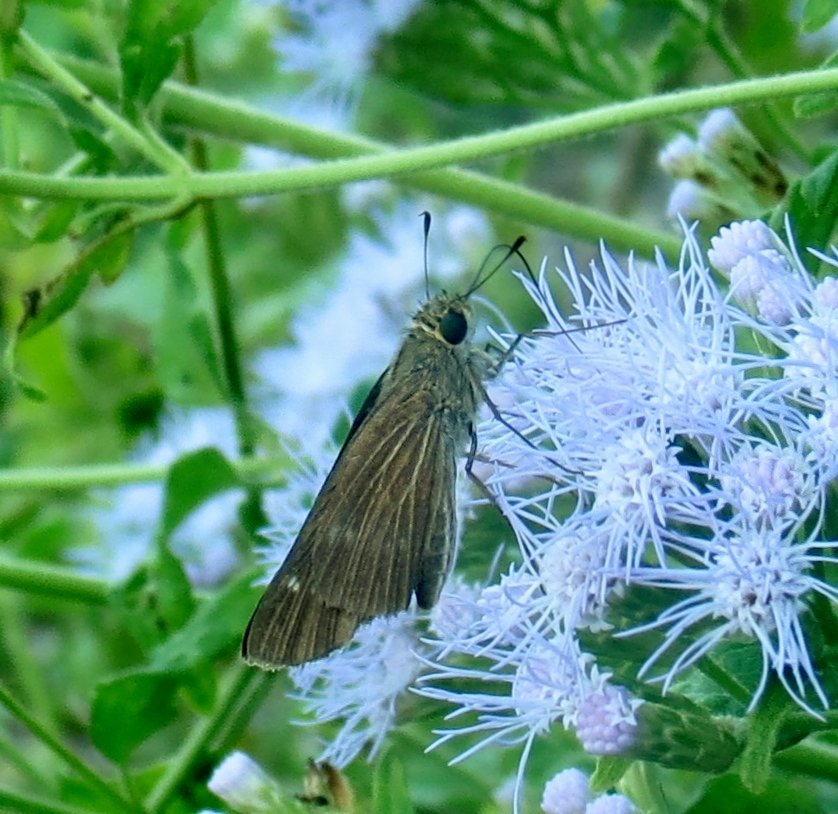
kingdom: Animalia
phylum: Arthropoda
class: Insecta
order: Lepidoptera
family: Hesperiidae
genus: Panoquina
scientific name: Panoquina ocola
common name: Ocola Skipper
